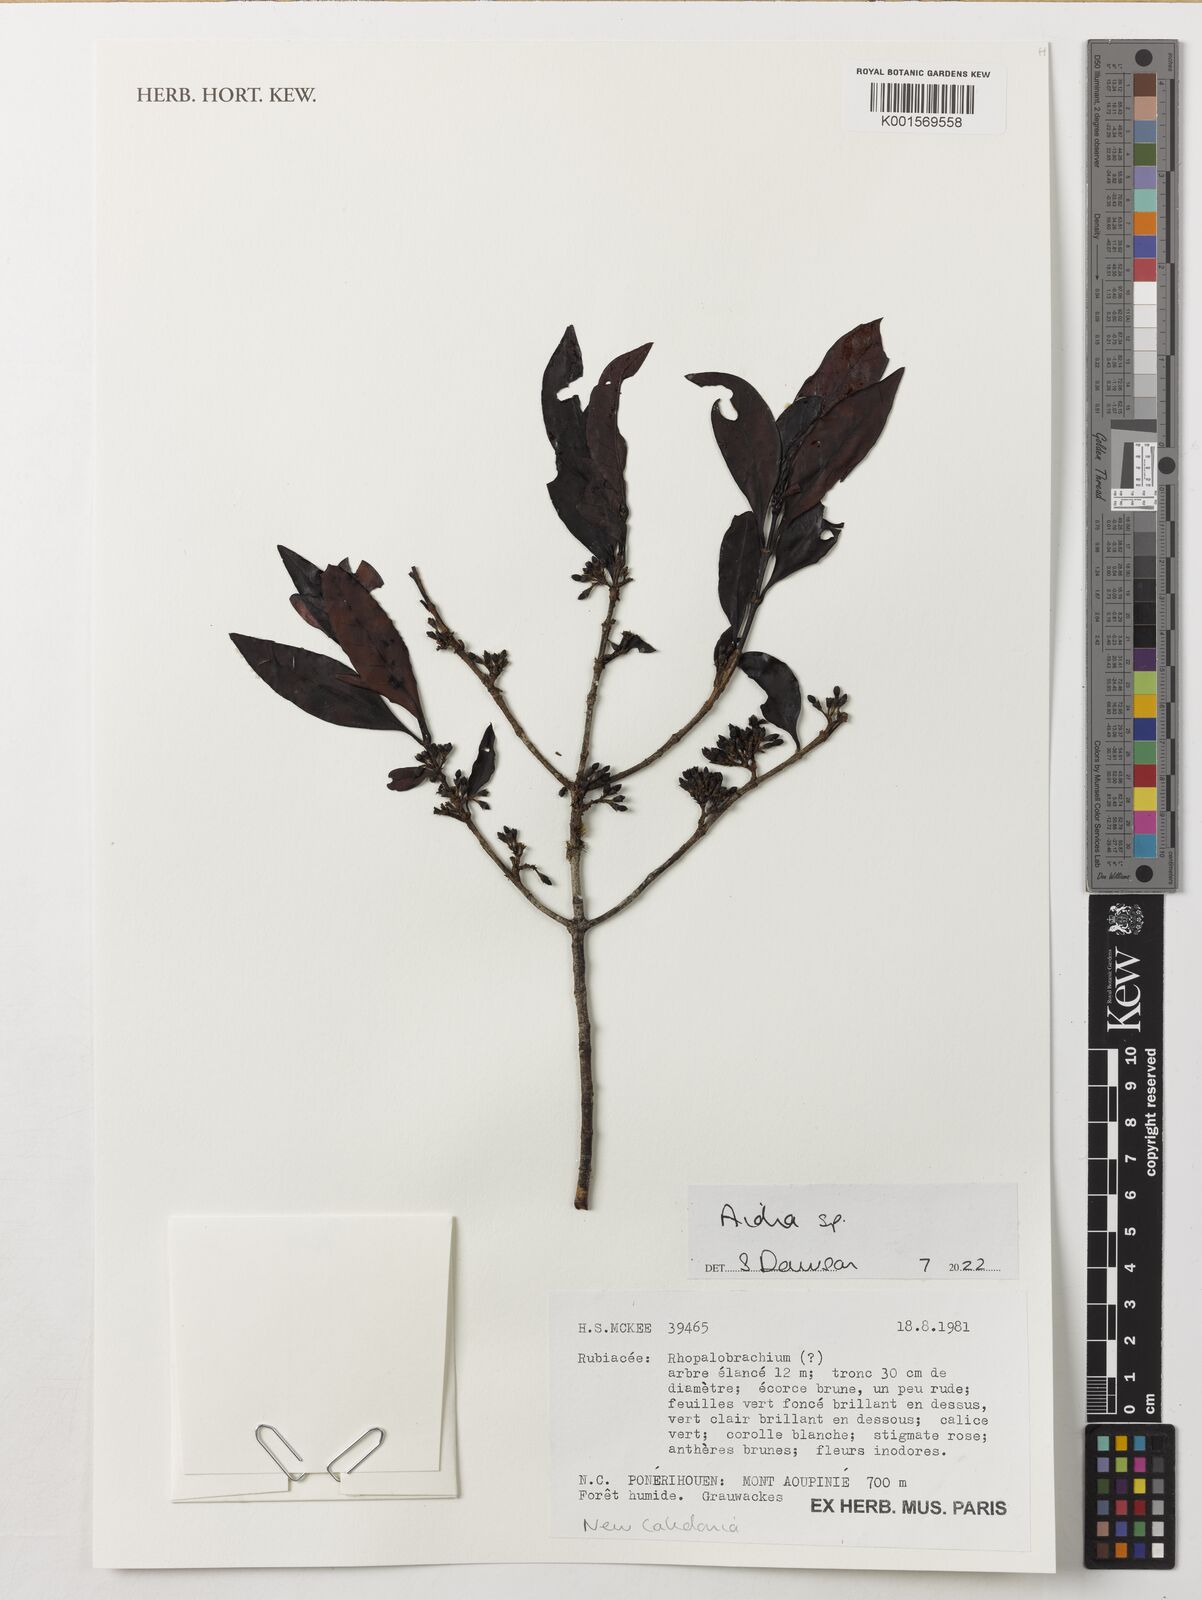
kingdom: Plantae
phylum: Tracheophyta
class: Magnoliopsida
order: Gentianales
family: Rubiaceae
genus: Aidia
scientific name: Aidia
